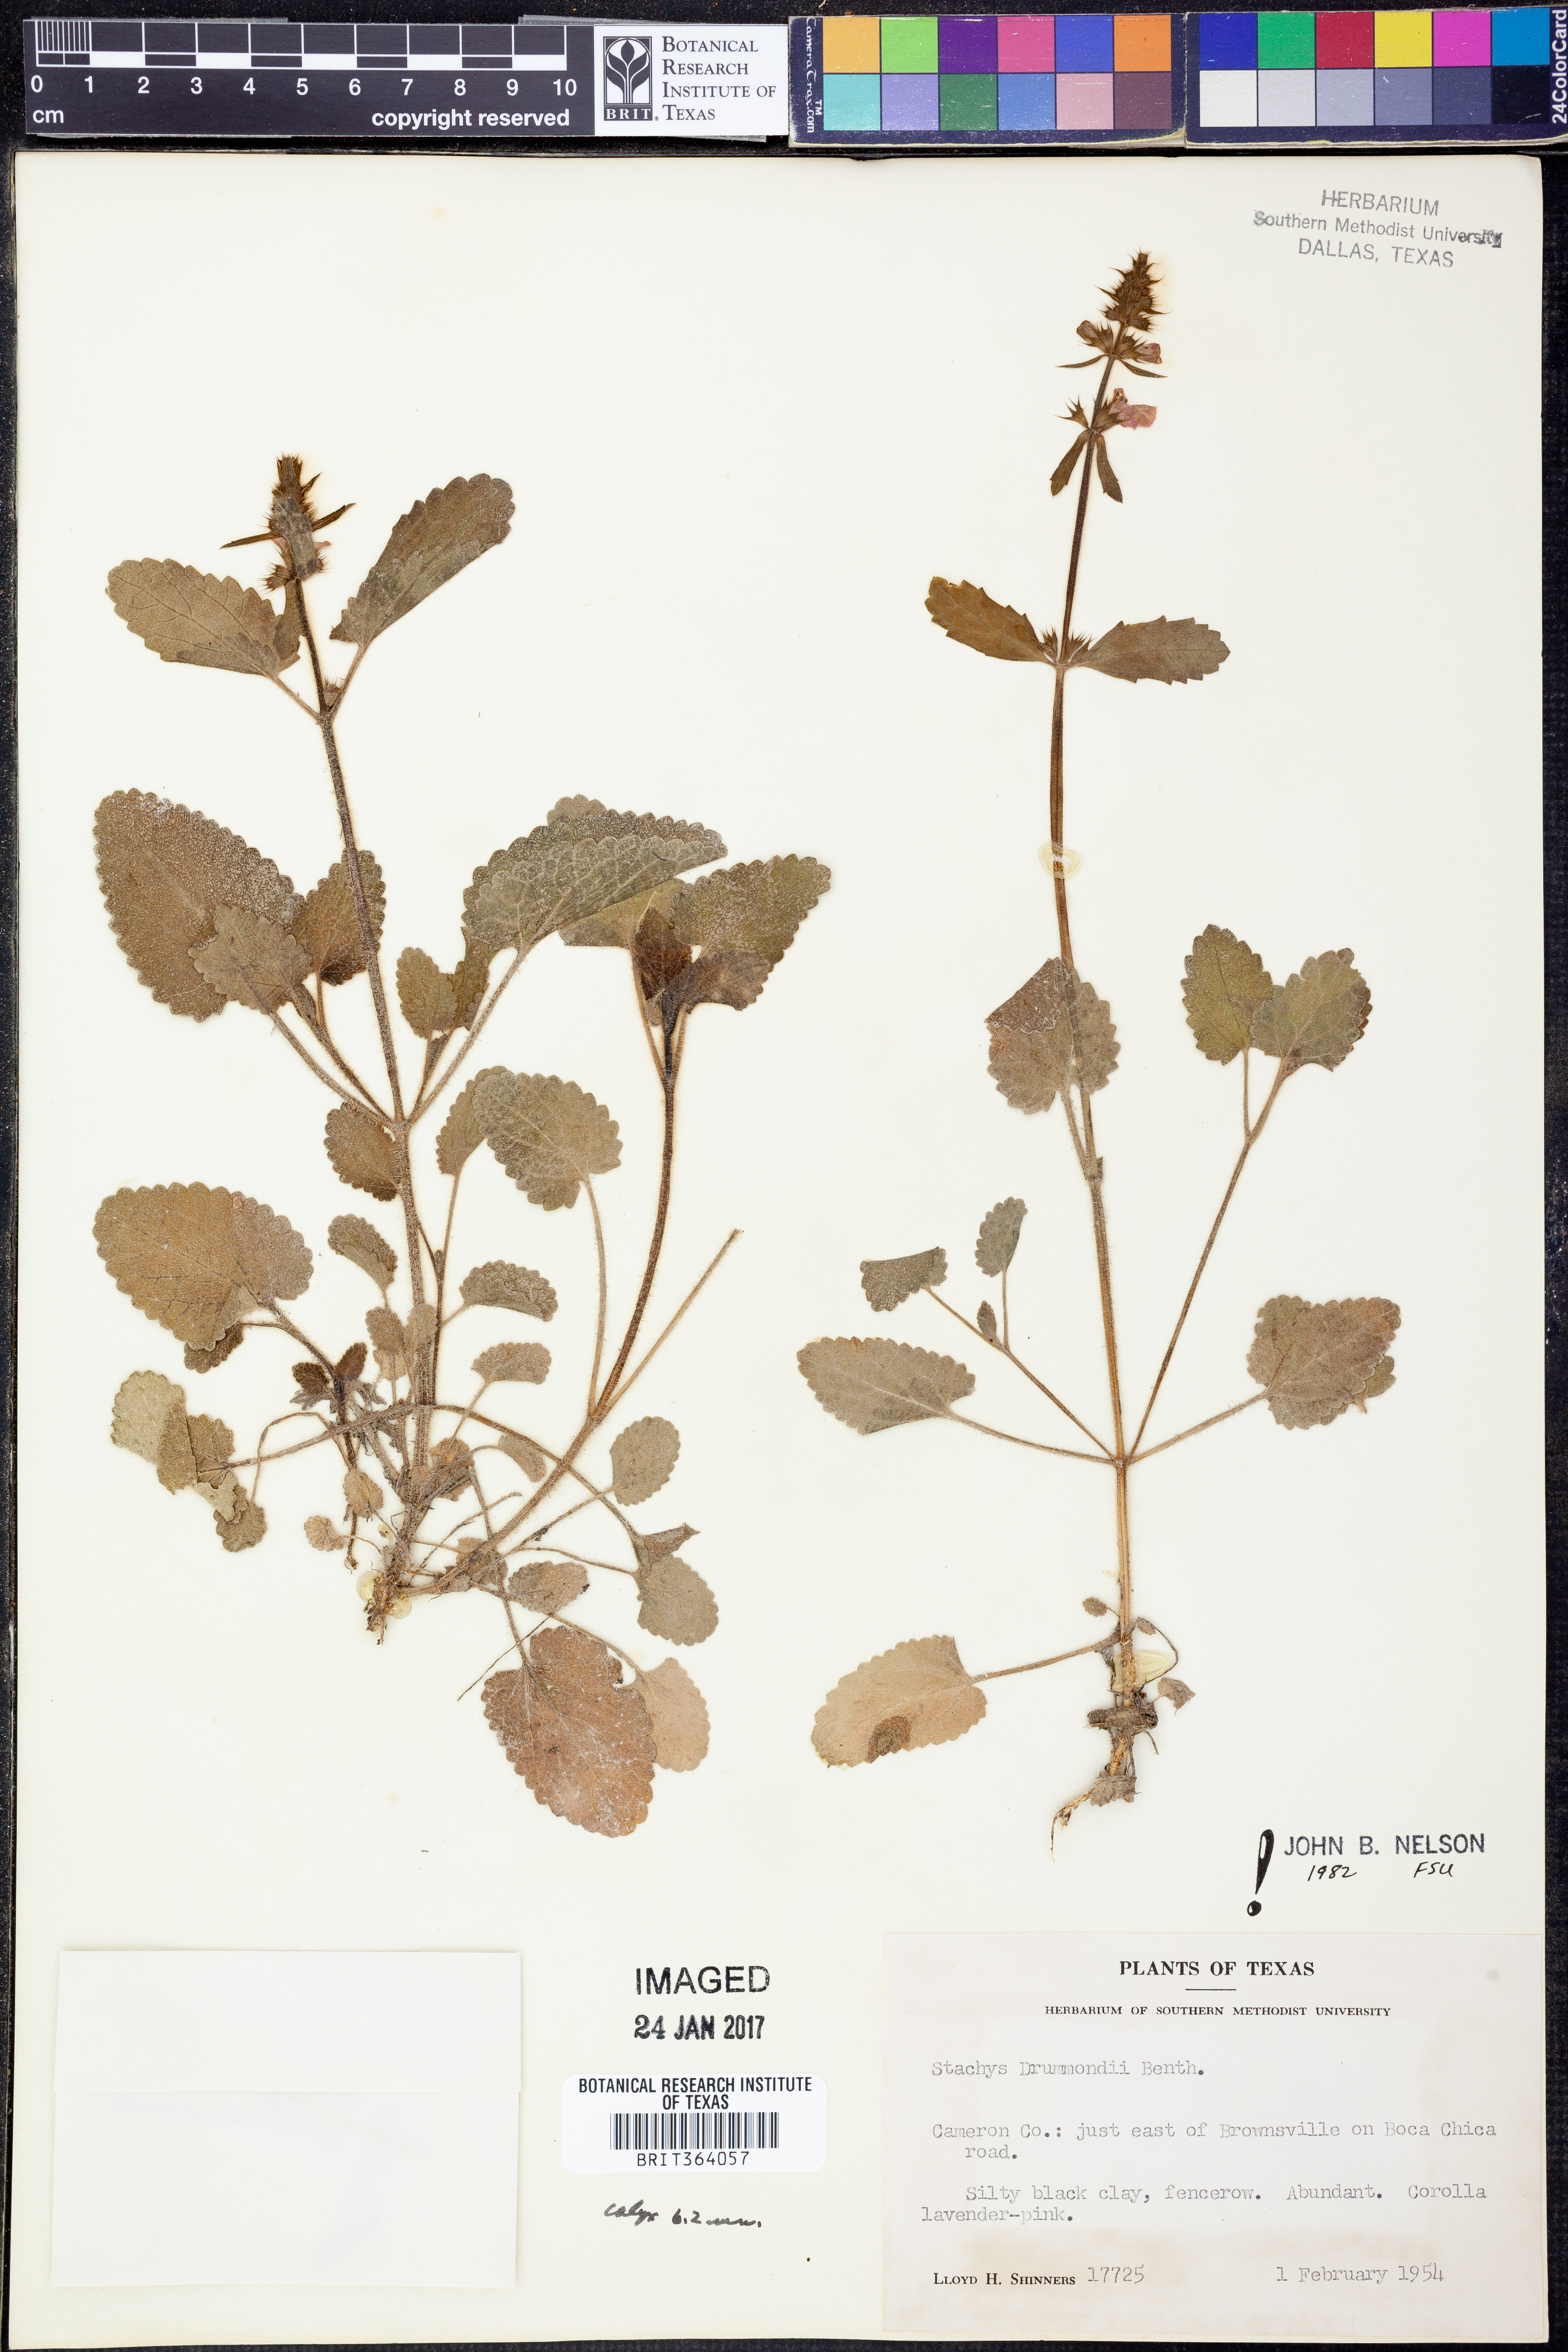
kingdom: Plantae
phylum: Tracheophyta
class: Magnoliopsida
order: Lamiales
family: Lamiaceae
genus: Stachys
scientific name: Stachys drummondii
